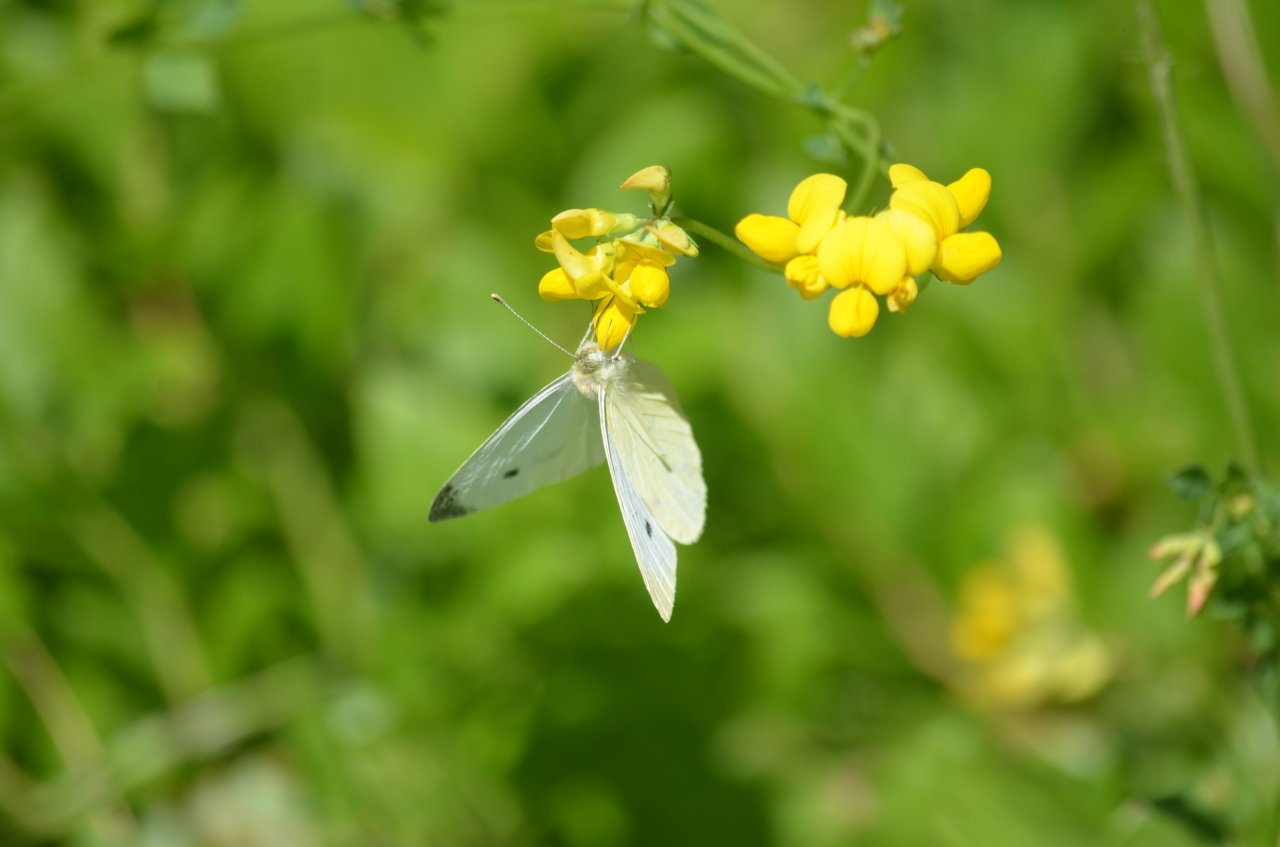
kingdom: Animalia
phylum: Arthropoda
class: Insecta
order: Lepidoptera
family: Pieridae
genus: Pieris
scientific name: Pieris rapae
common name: Cabbage White
